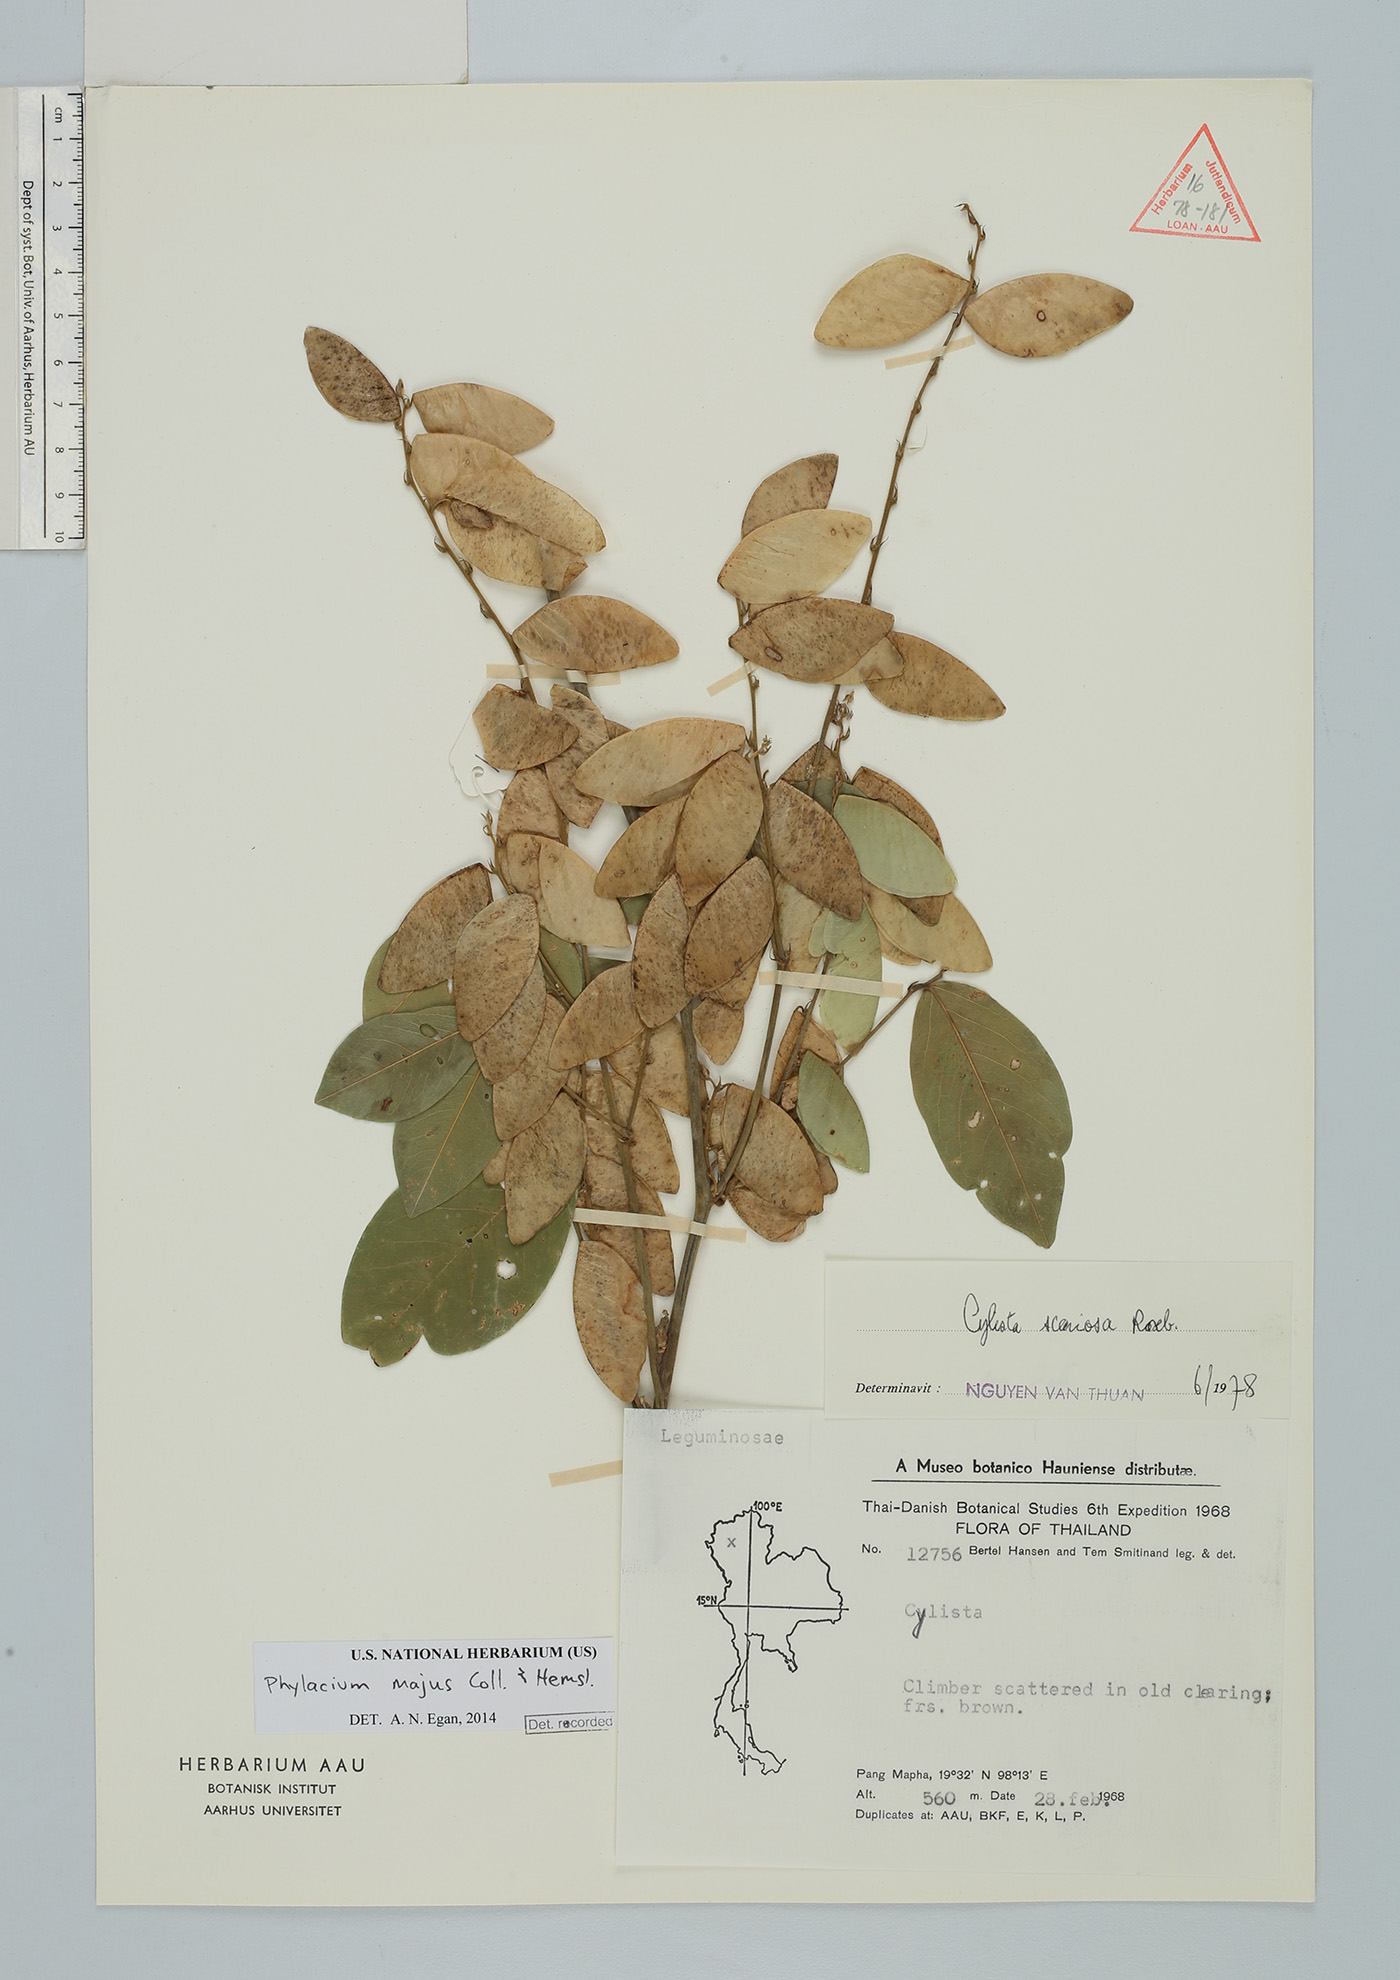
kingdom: Plantae
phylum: Tracheophyta
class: Magnoliopsida
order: Fabales
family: Fabaceae
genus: Phylacium
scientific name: Phylacium majus
